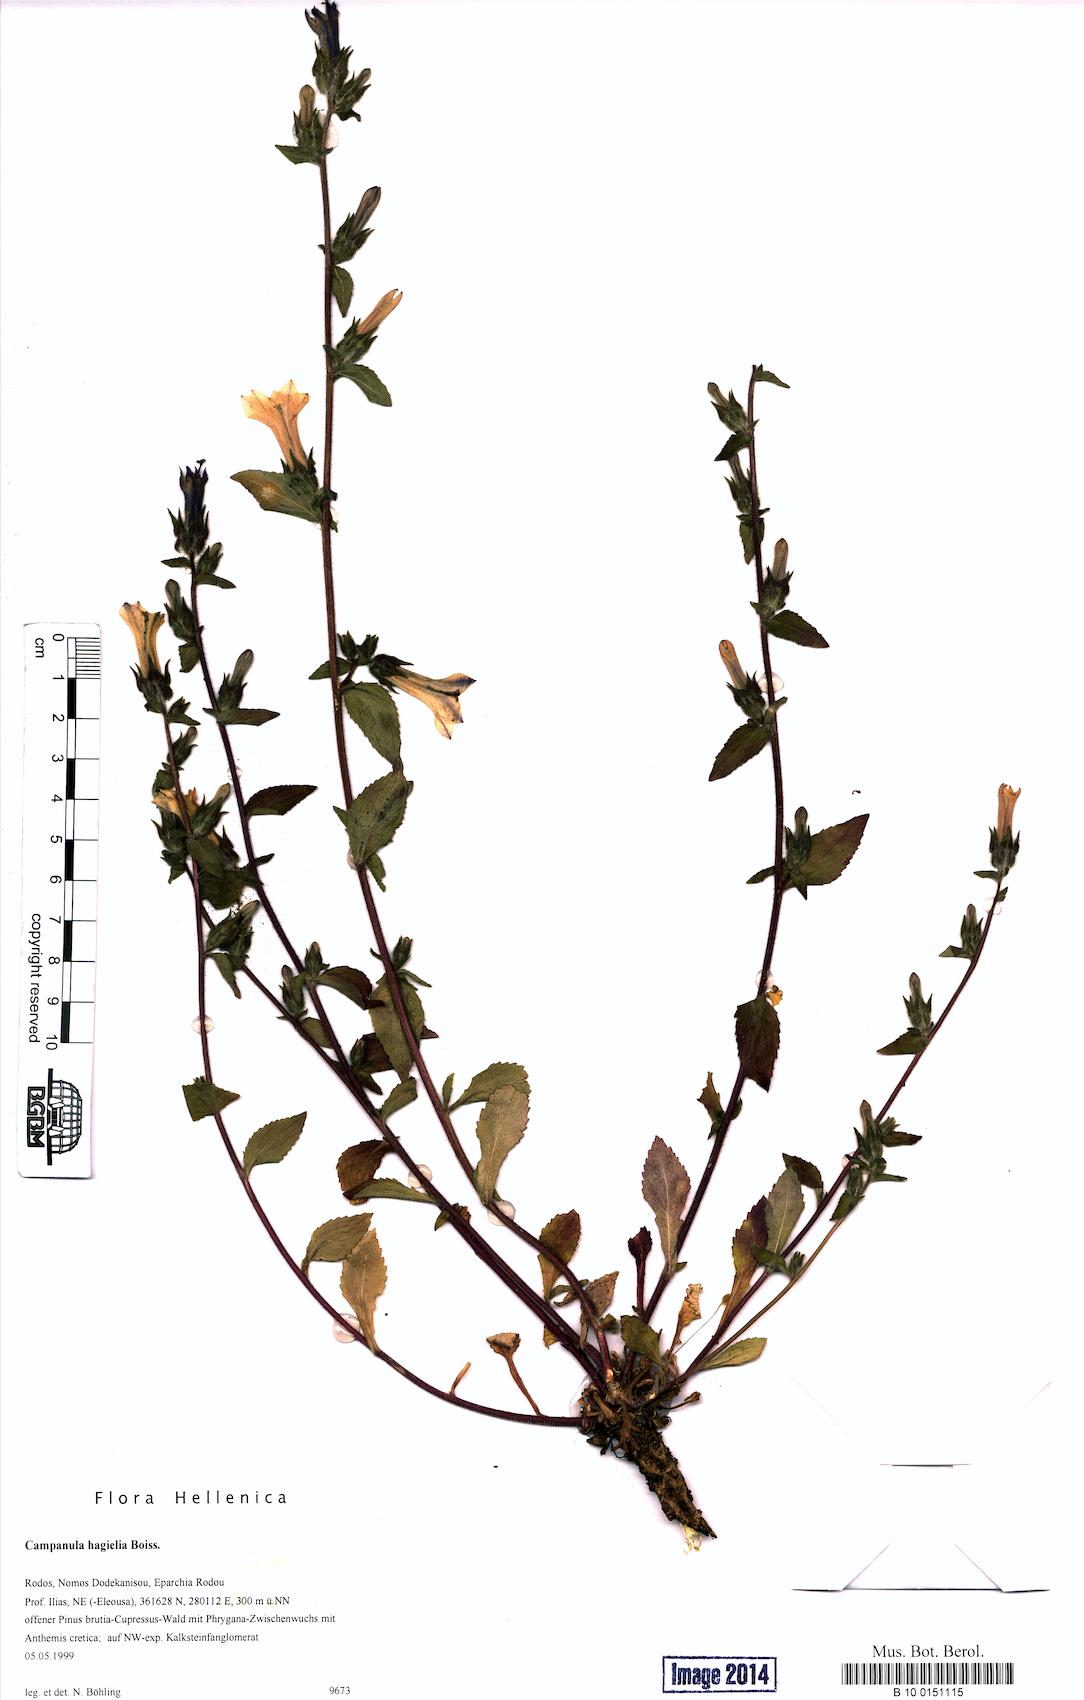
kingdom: Plantae
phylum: Tracheophyta
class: Magnoliopsida
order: Asterales
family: Campanulaceae
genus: Campanula
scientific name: Campanula hagielia
